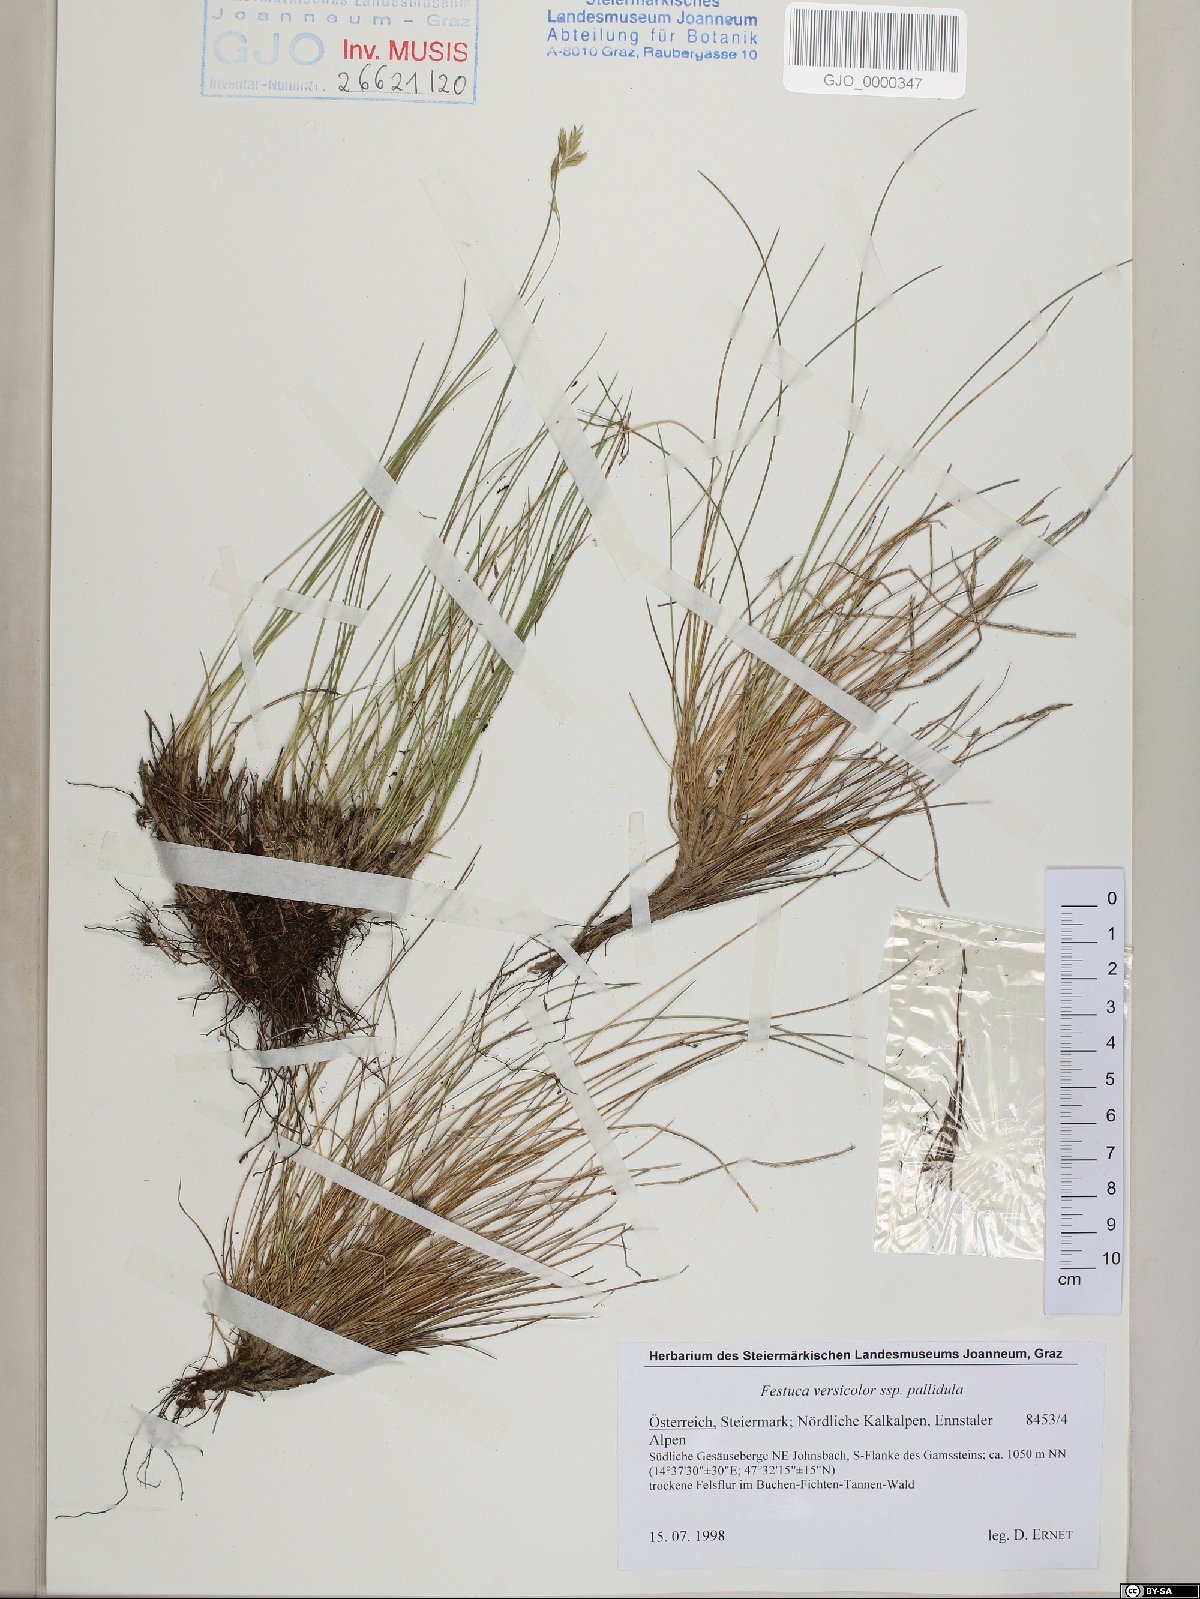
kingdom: Plantae
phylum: Tracheophyta
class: Liliopsida
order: Poales
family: Poaceae
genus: Festuca
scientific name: Festuca varia
